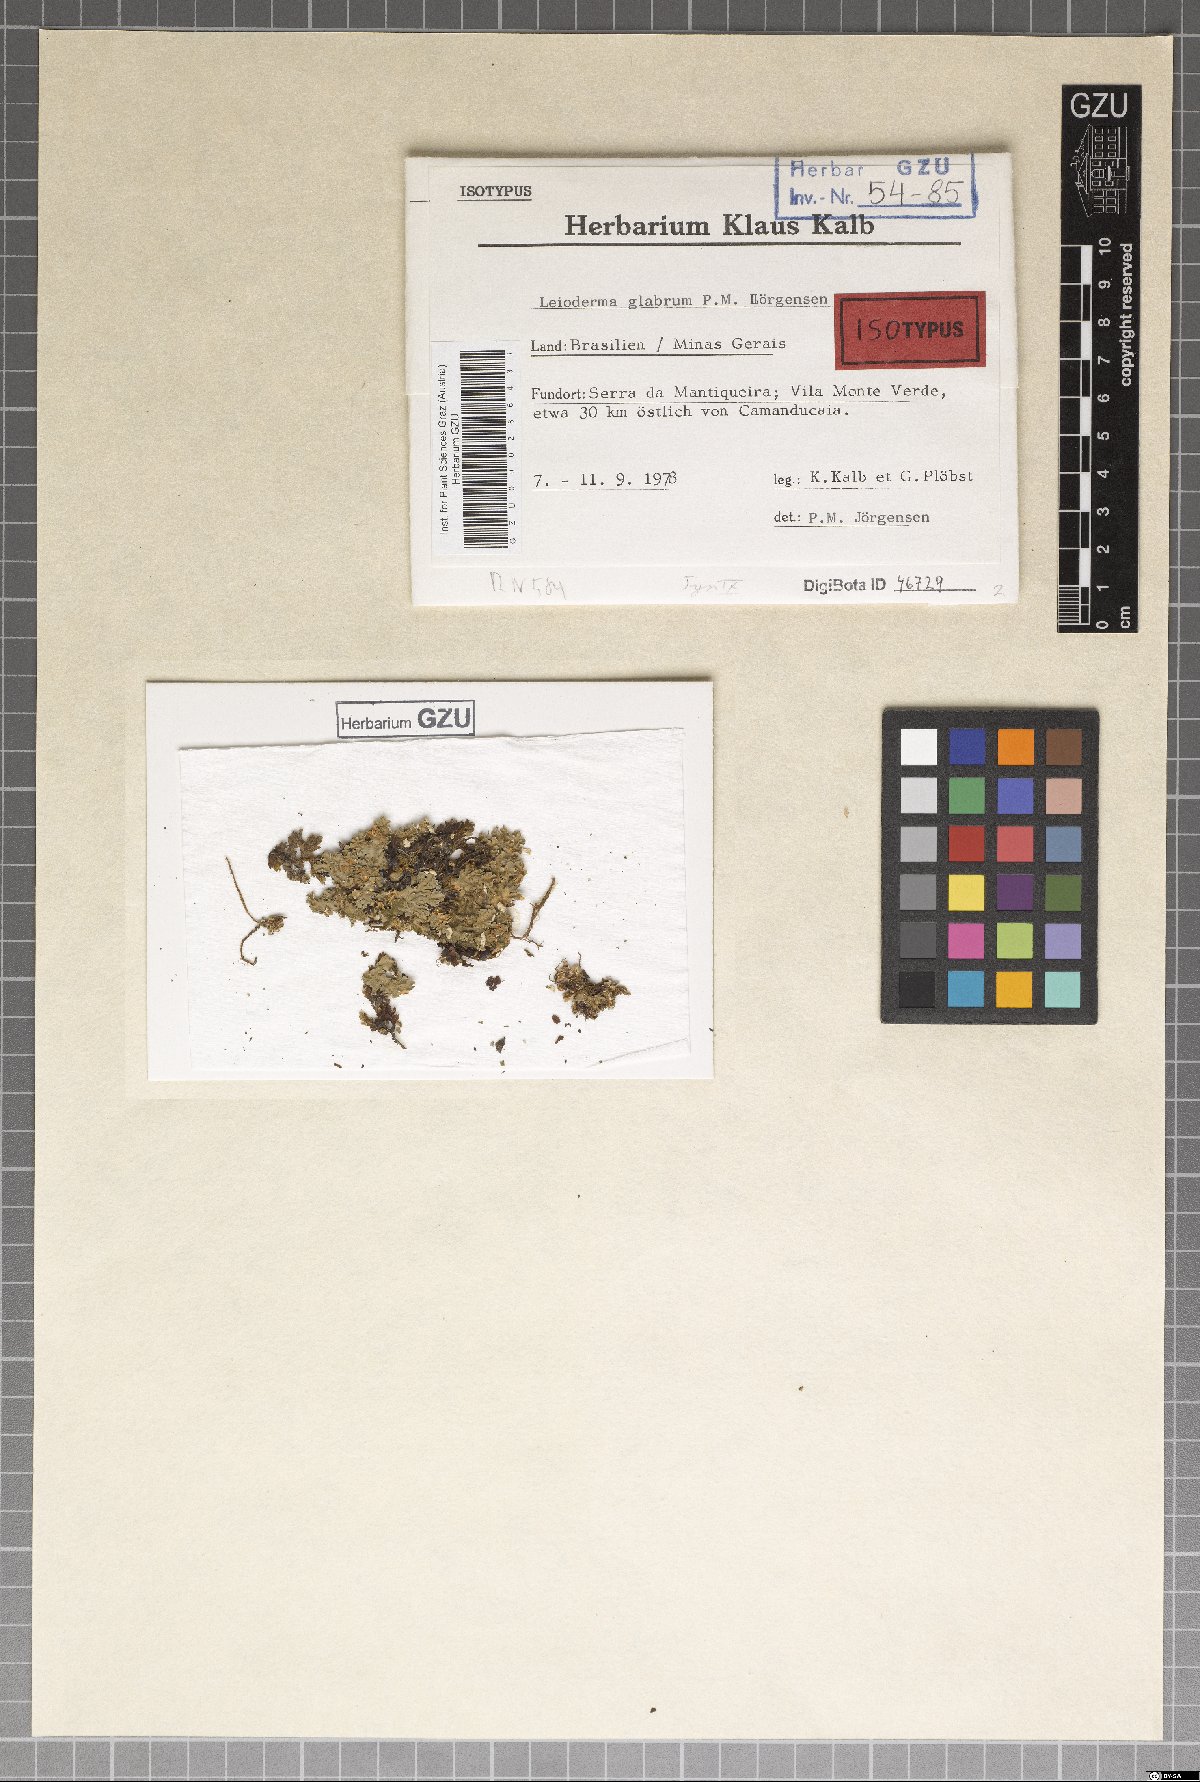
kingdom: Fungi
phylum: Ascomycota
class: Lecanoromycetes
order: Peltigerales
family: Pannariaceae
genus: Leioderma
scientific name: Leioderma glabrum
